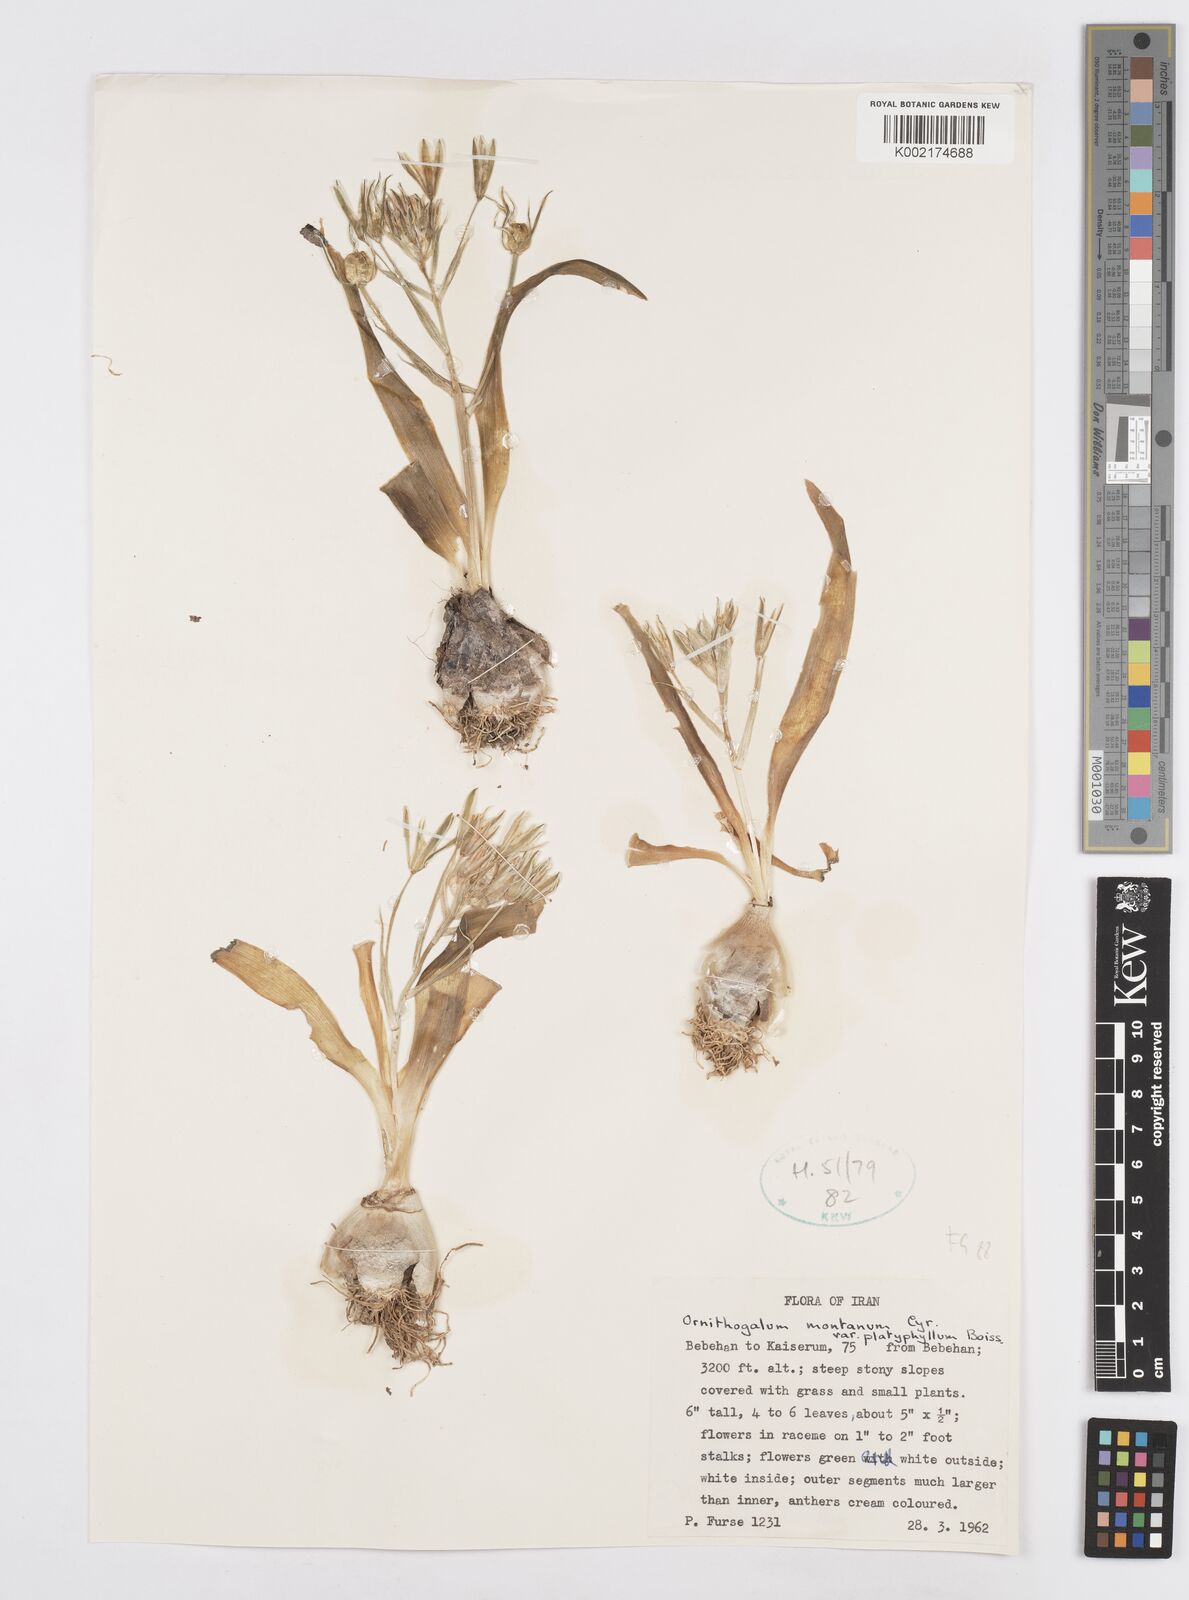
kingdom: Plantae
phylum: Tracheophyta
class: Liliopsida
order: Asparagales
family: Asparagaceae
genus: Ornithogalum
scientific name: Ornithogalum
